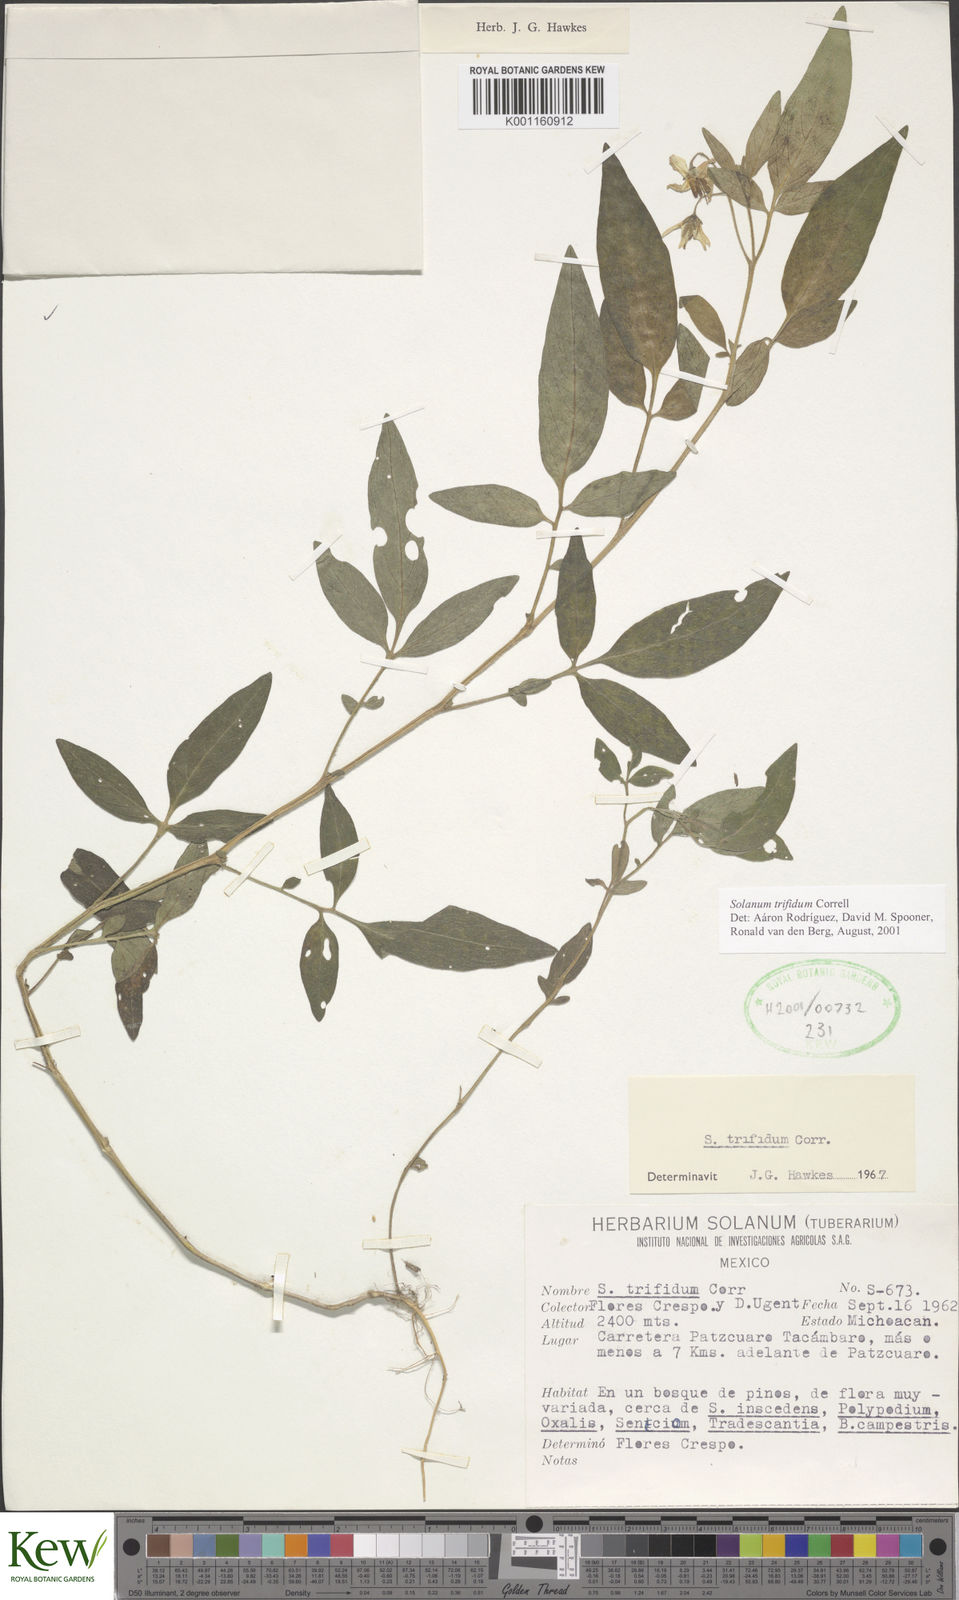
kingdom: Plantae
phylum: Tracheophyta
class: Magnoliopsida
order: Solanales
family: Solanaceae
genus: Solanum
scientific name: Solanum trifidum
